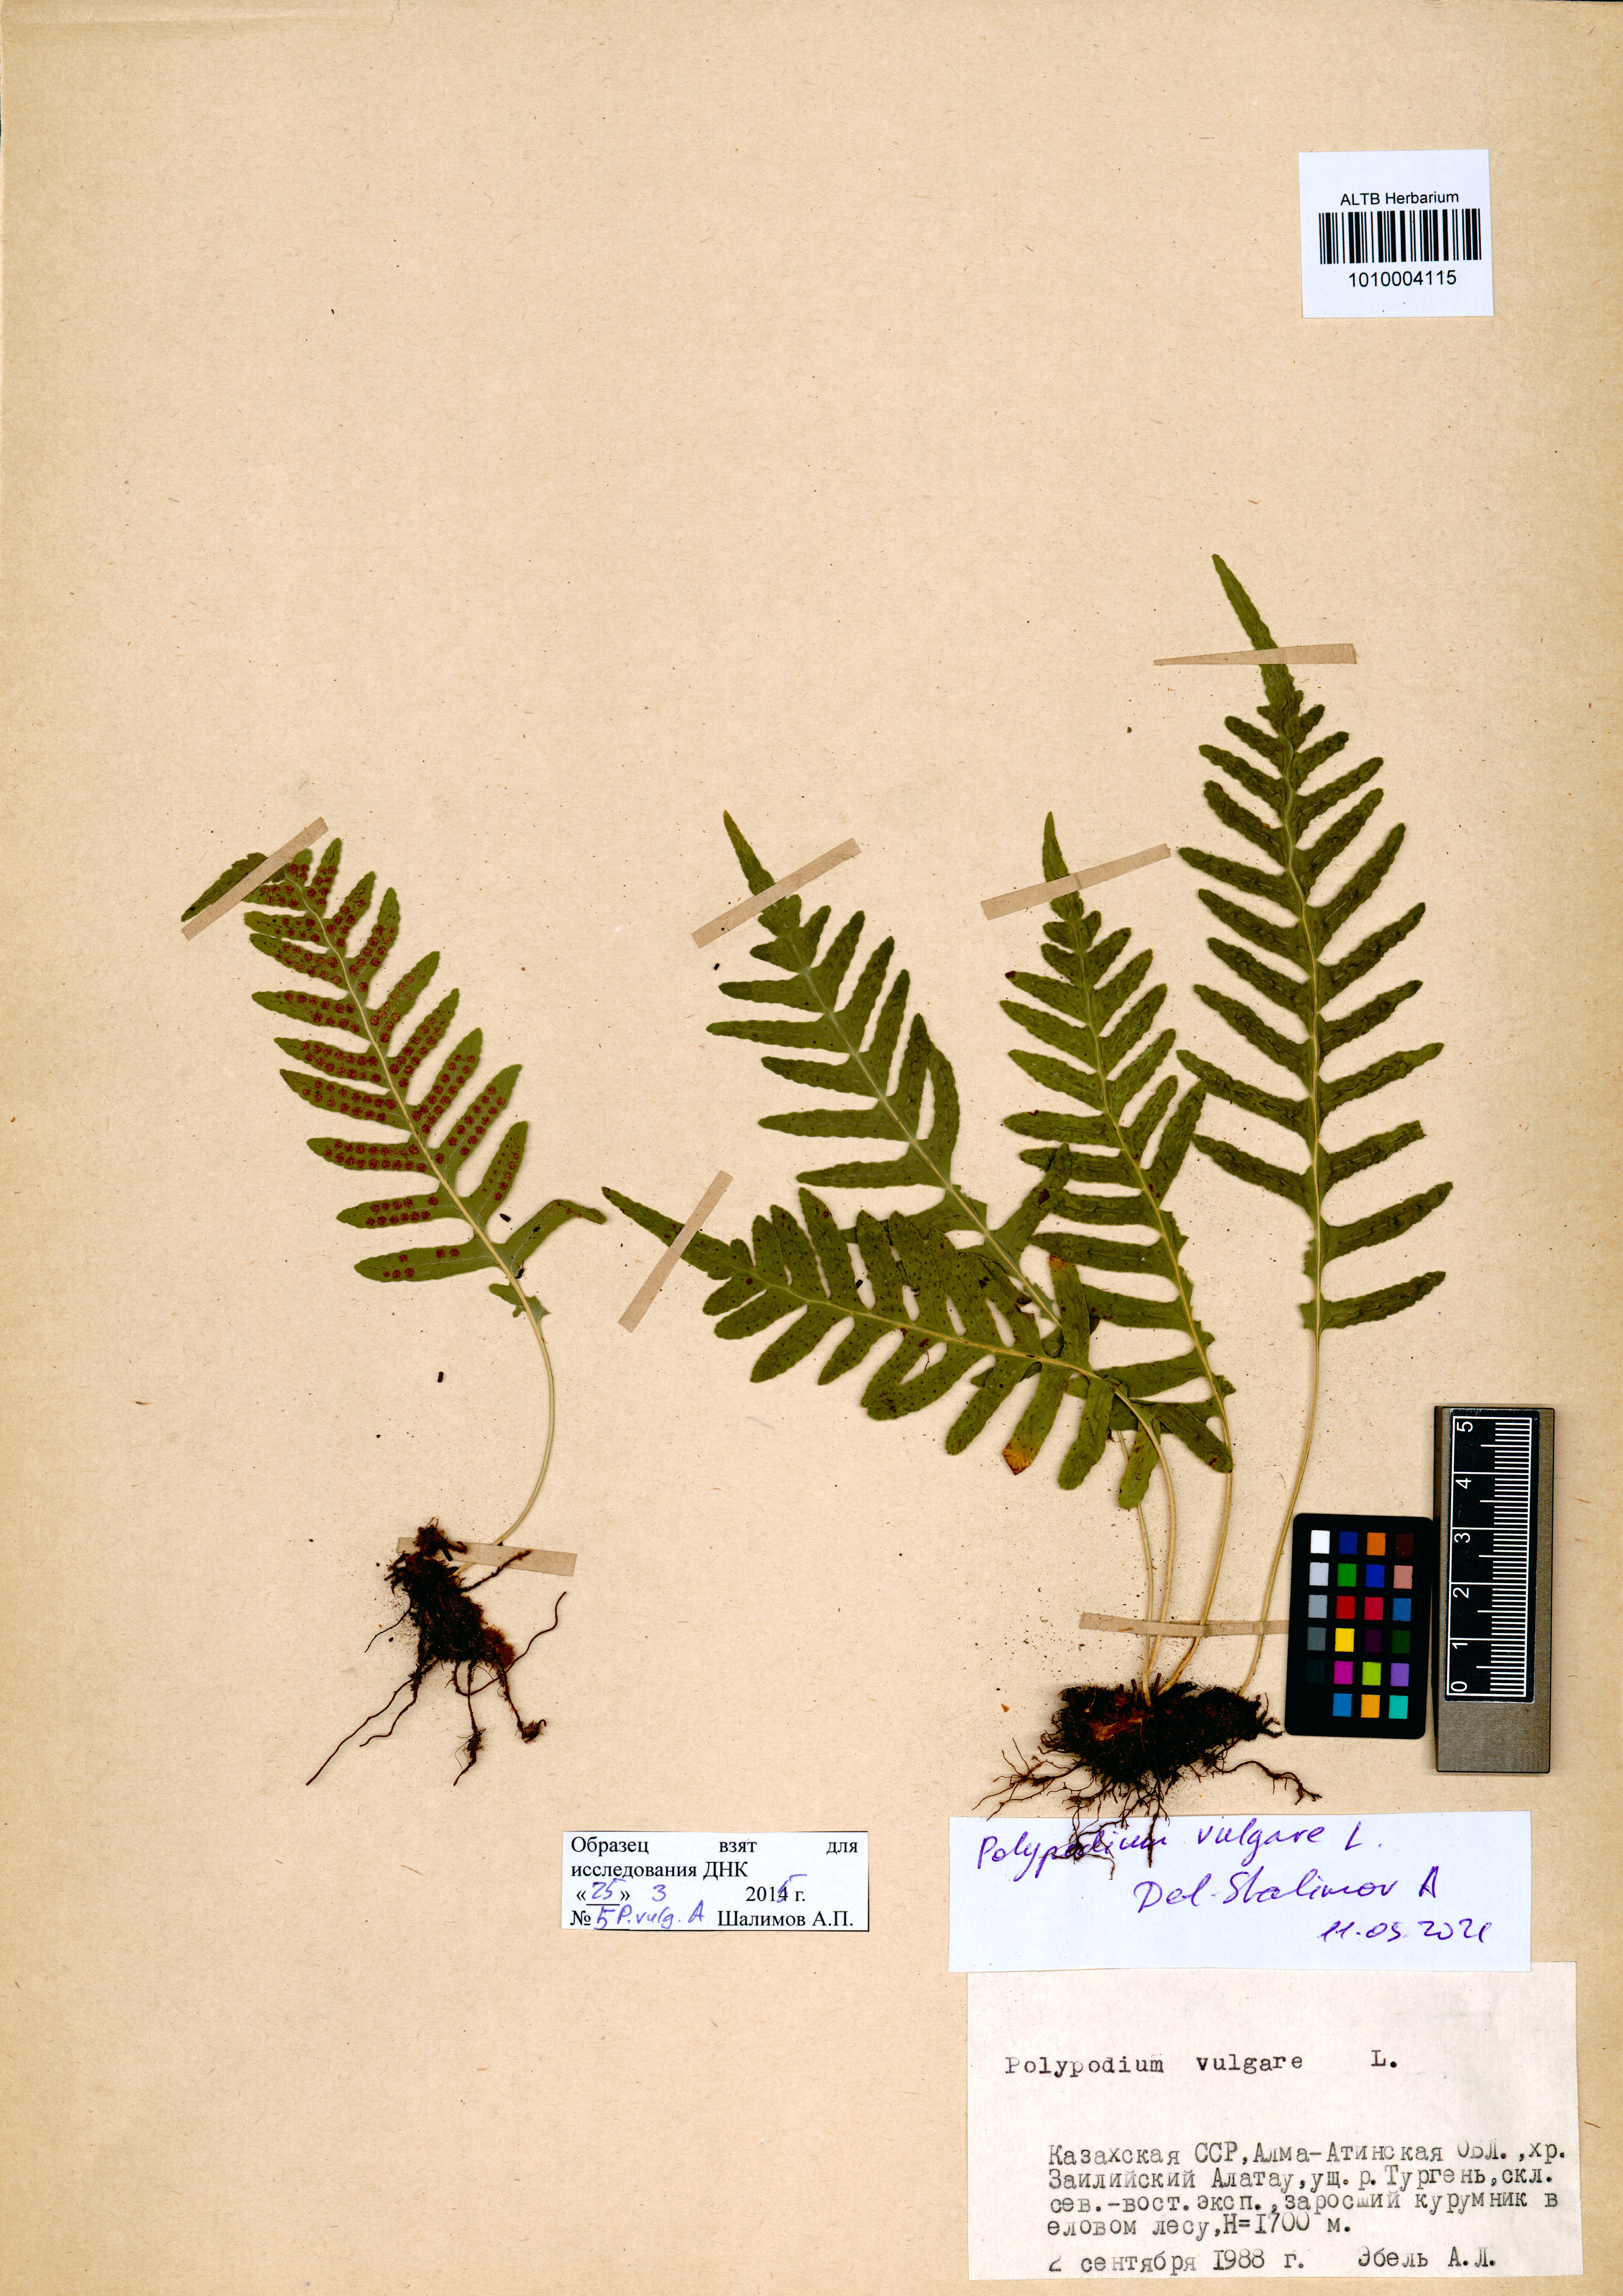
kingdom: Plantae
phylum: Tracheophyta
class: Polypodiopsida
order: Polypodiales
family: Polypodiaceae
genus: Polypodium
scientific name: Polypodium vulgare
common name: Common polypody
